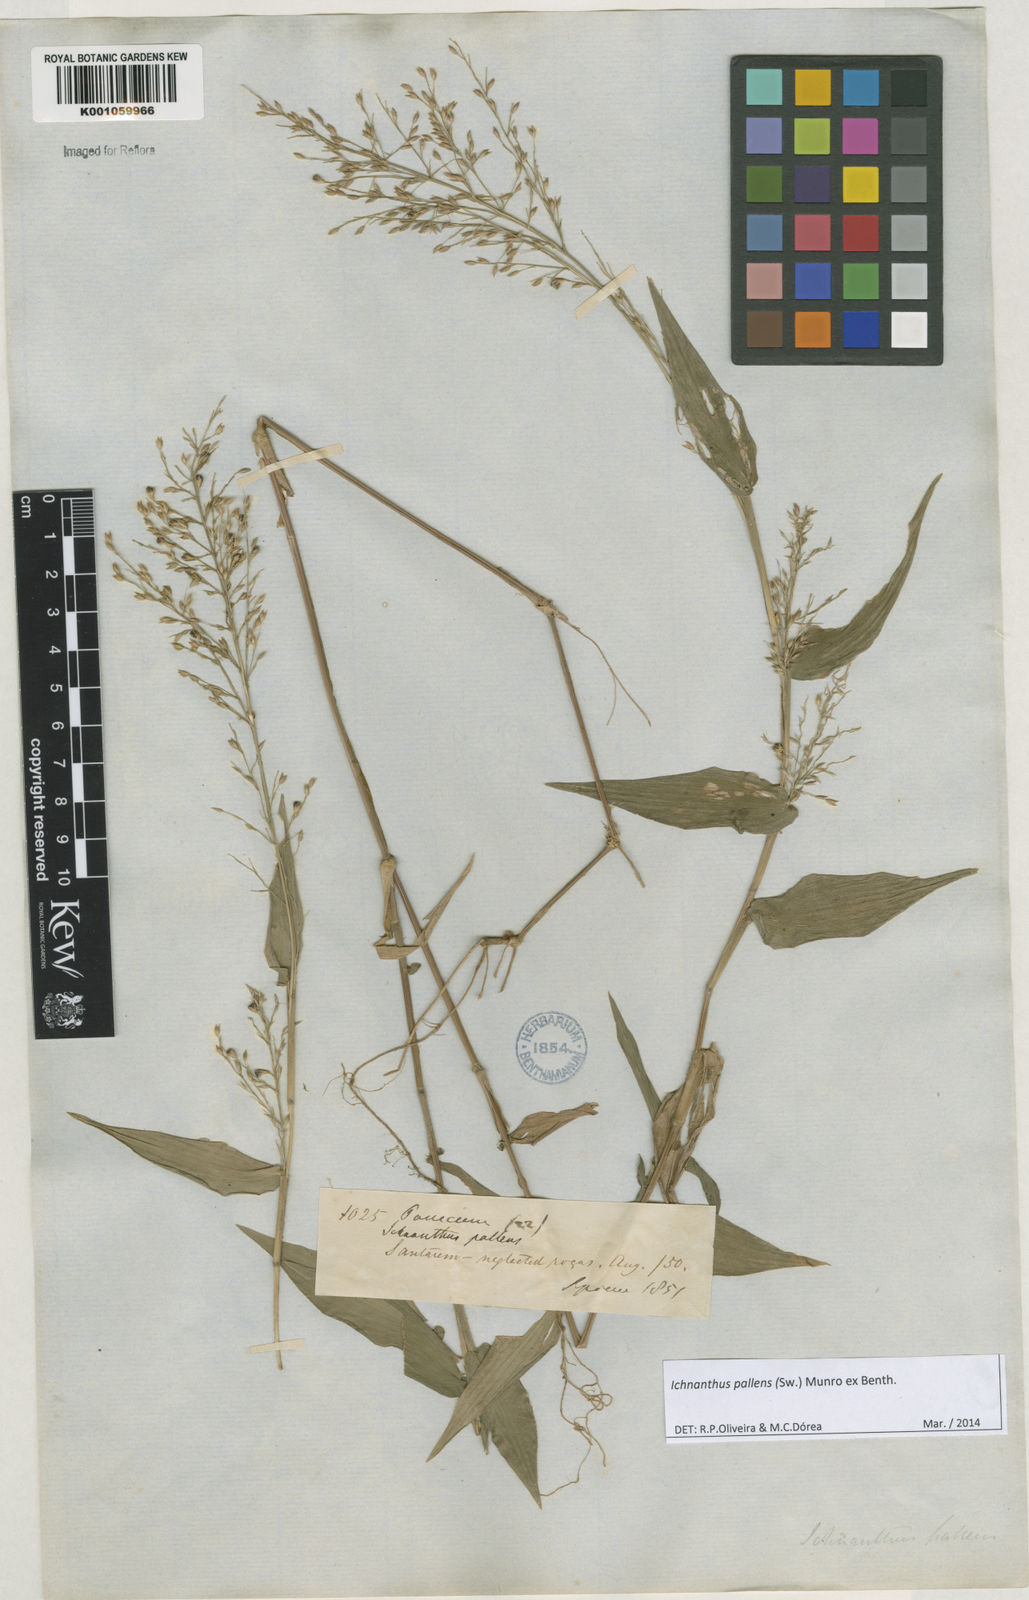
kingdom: Plantae
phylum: Tracheophyta
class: Liliopsida
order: Poales
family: Poaceae
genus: Ichnanthus
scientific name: Ichnanthus pallens
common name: Water grass
